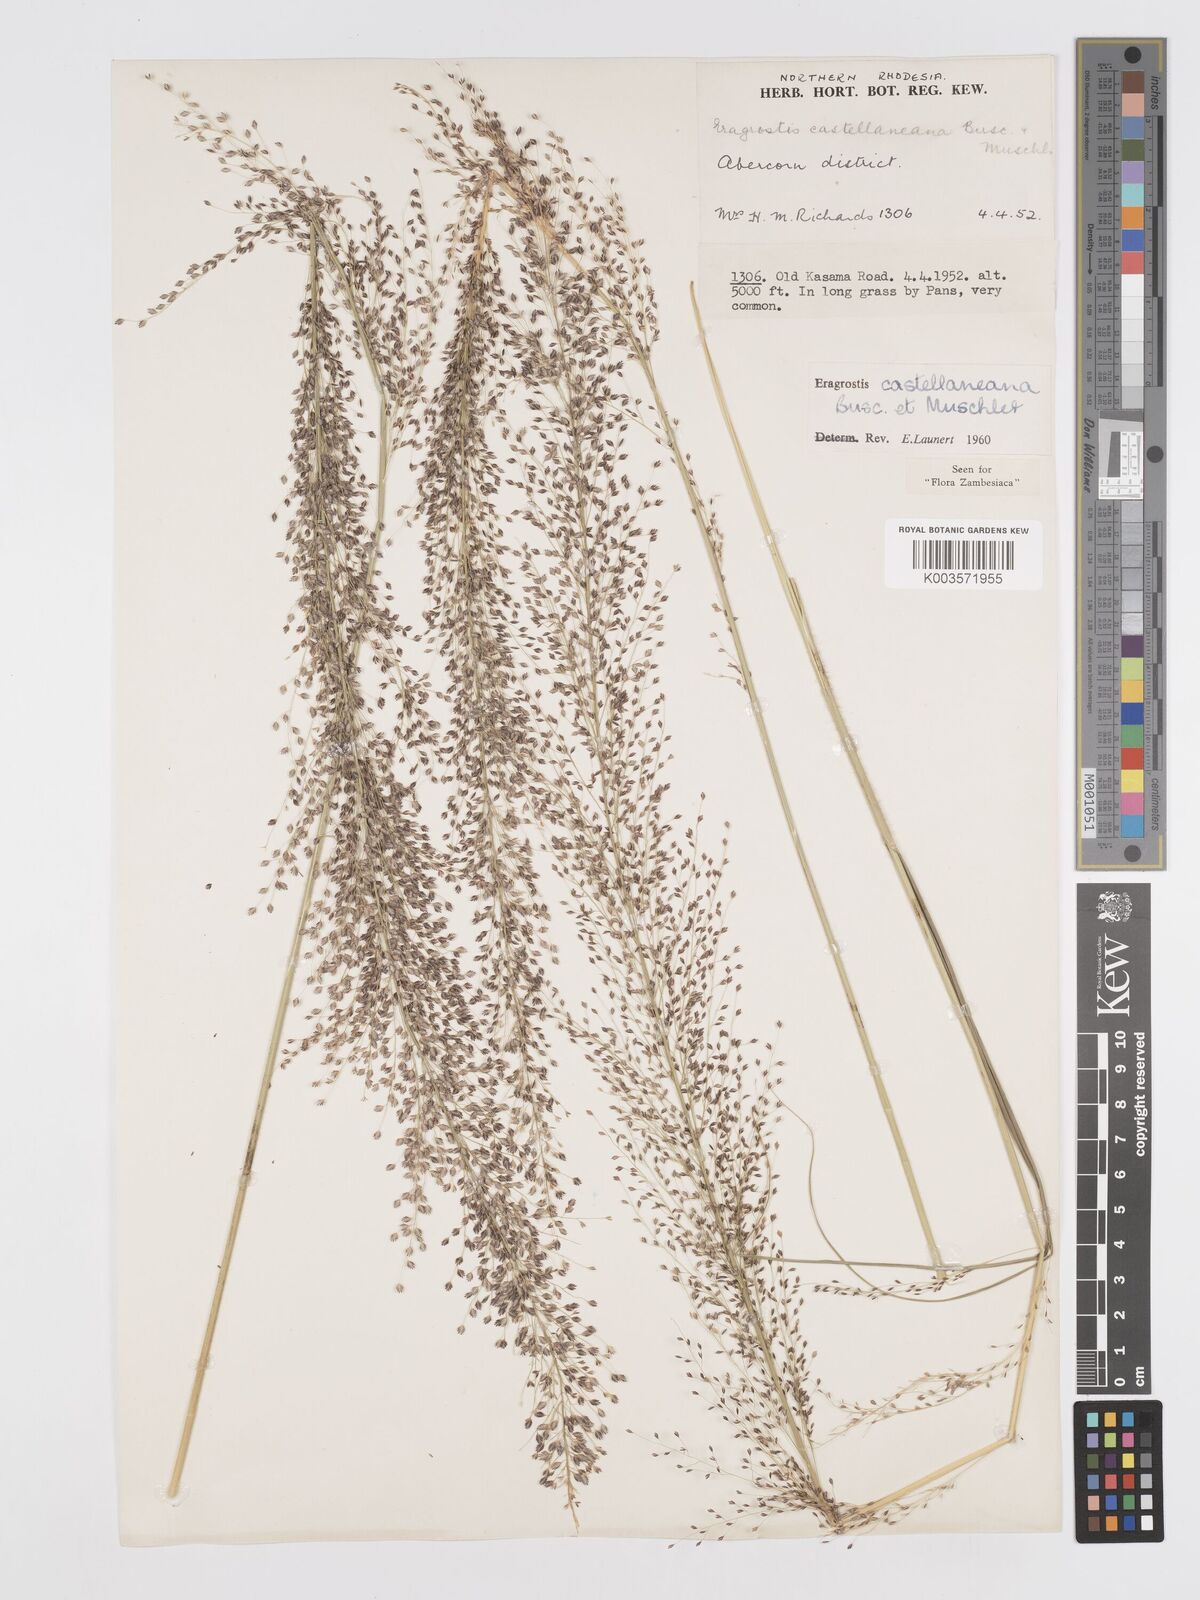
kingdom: Plantae
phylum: Tracheophyta
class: Liliopsida
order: Poales
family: Poaceae
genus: Eragrostis
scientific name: Eragrostis castellaneana
